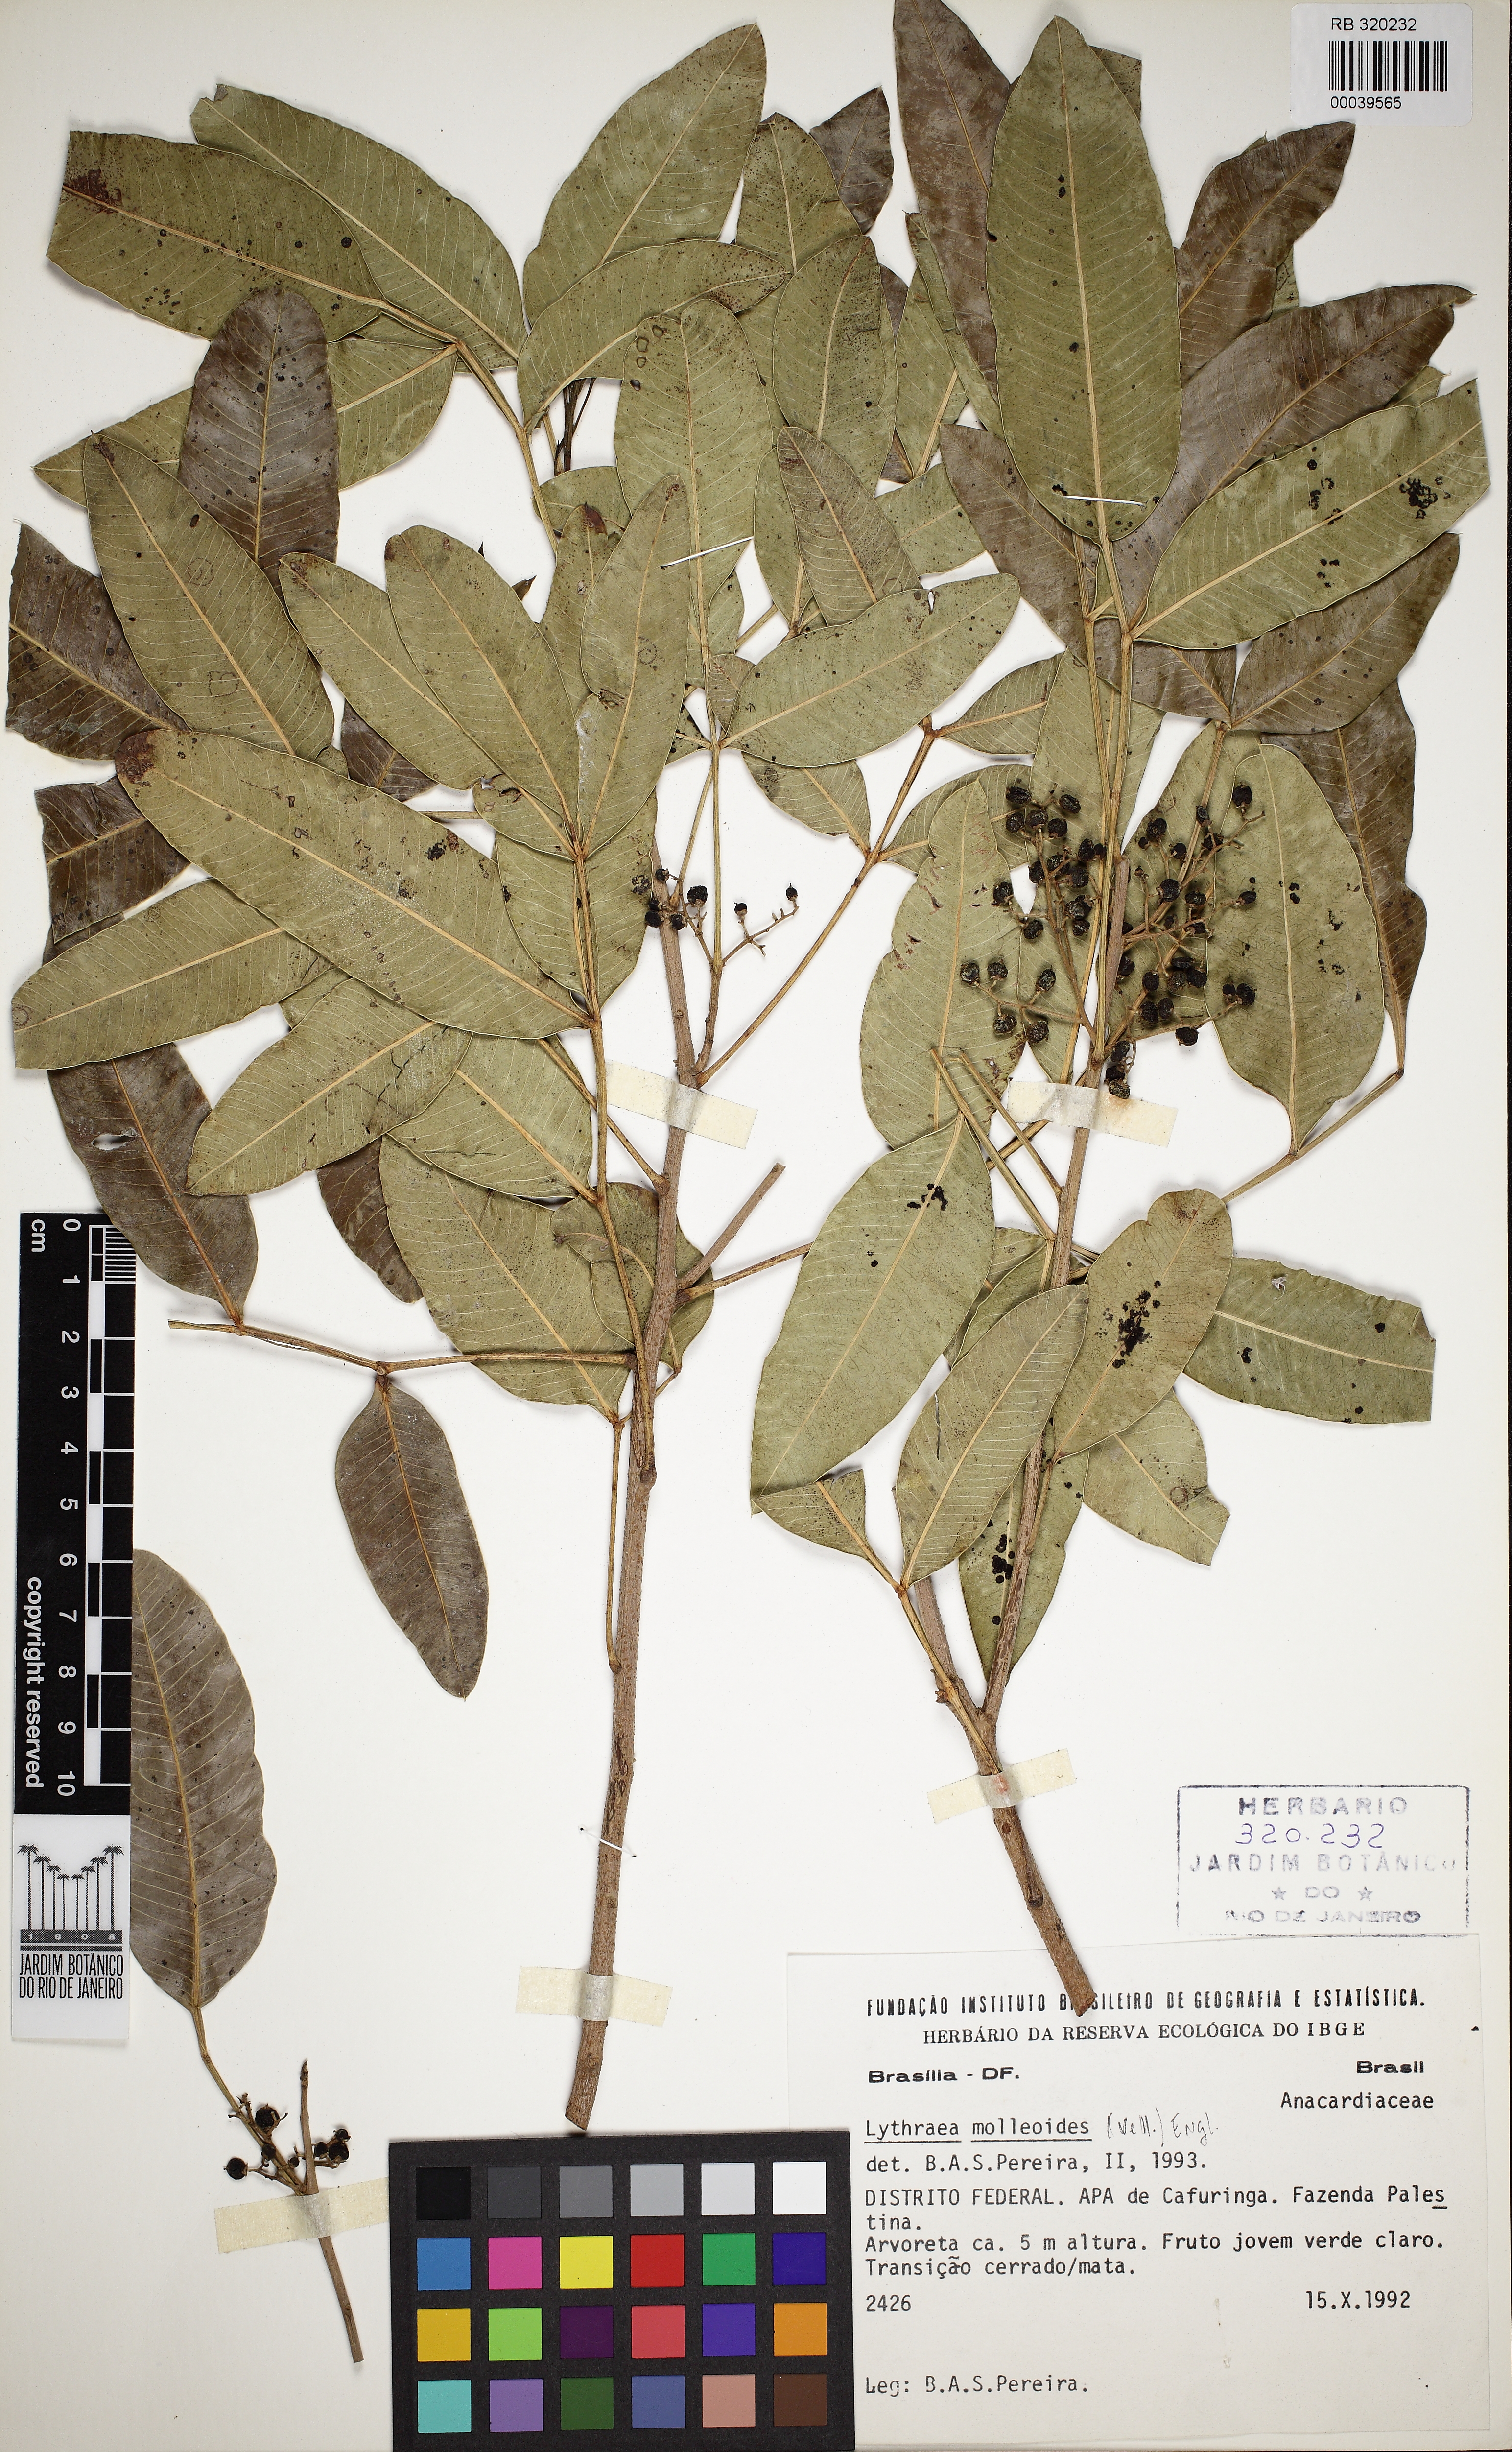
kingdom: Plantae
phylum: Tracheophyta
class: Magnoliopsida
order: Sapindales
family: Anacardiaceae
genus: Lithraea
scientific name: Lithraea molleoides
